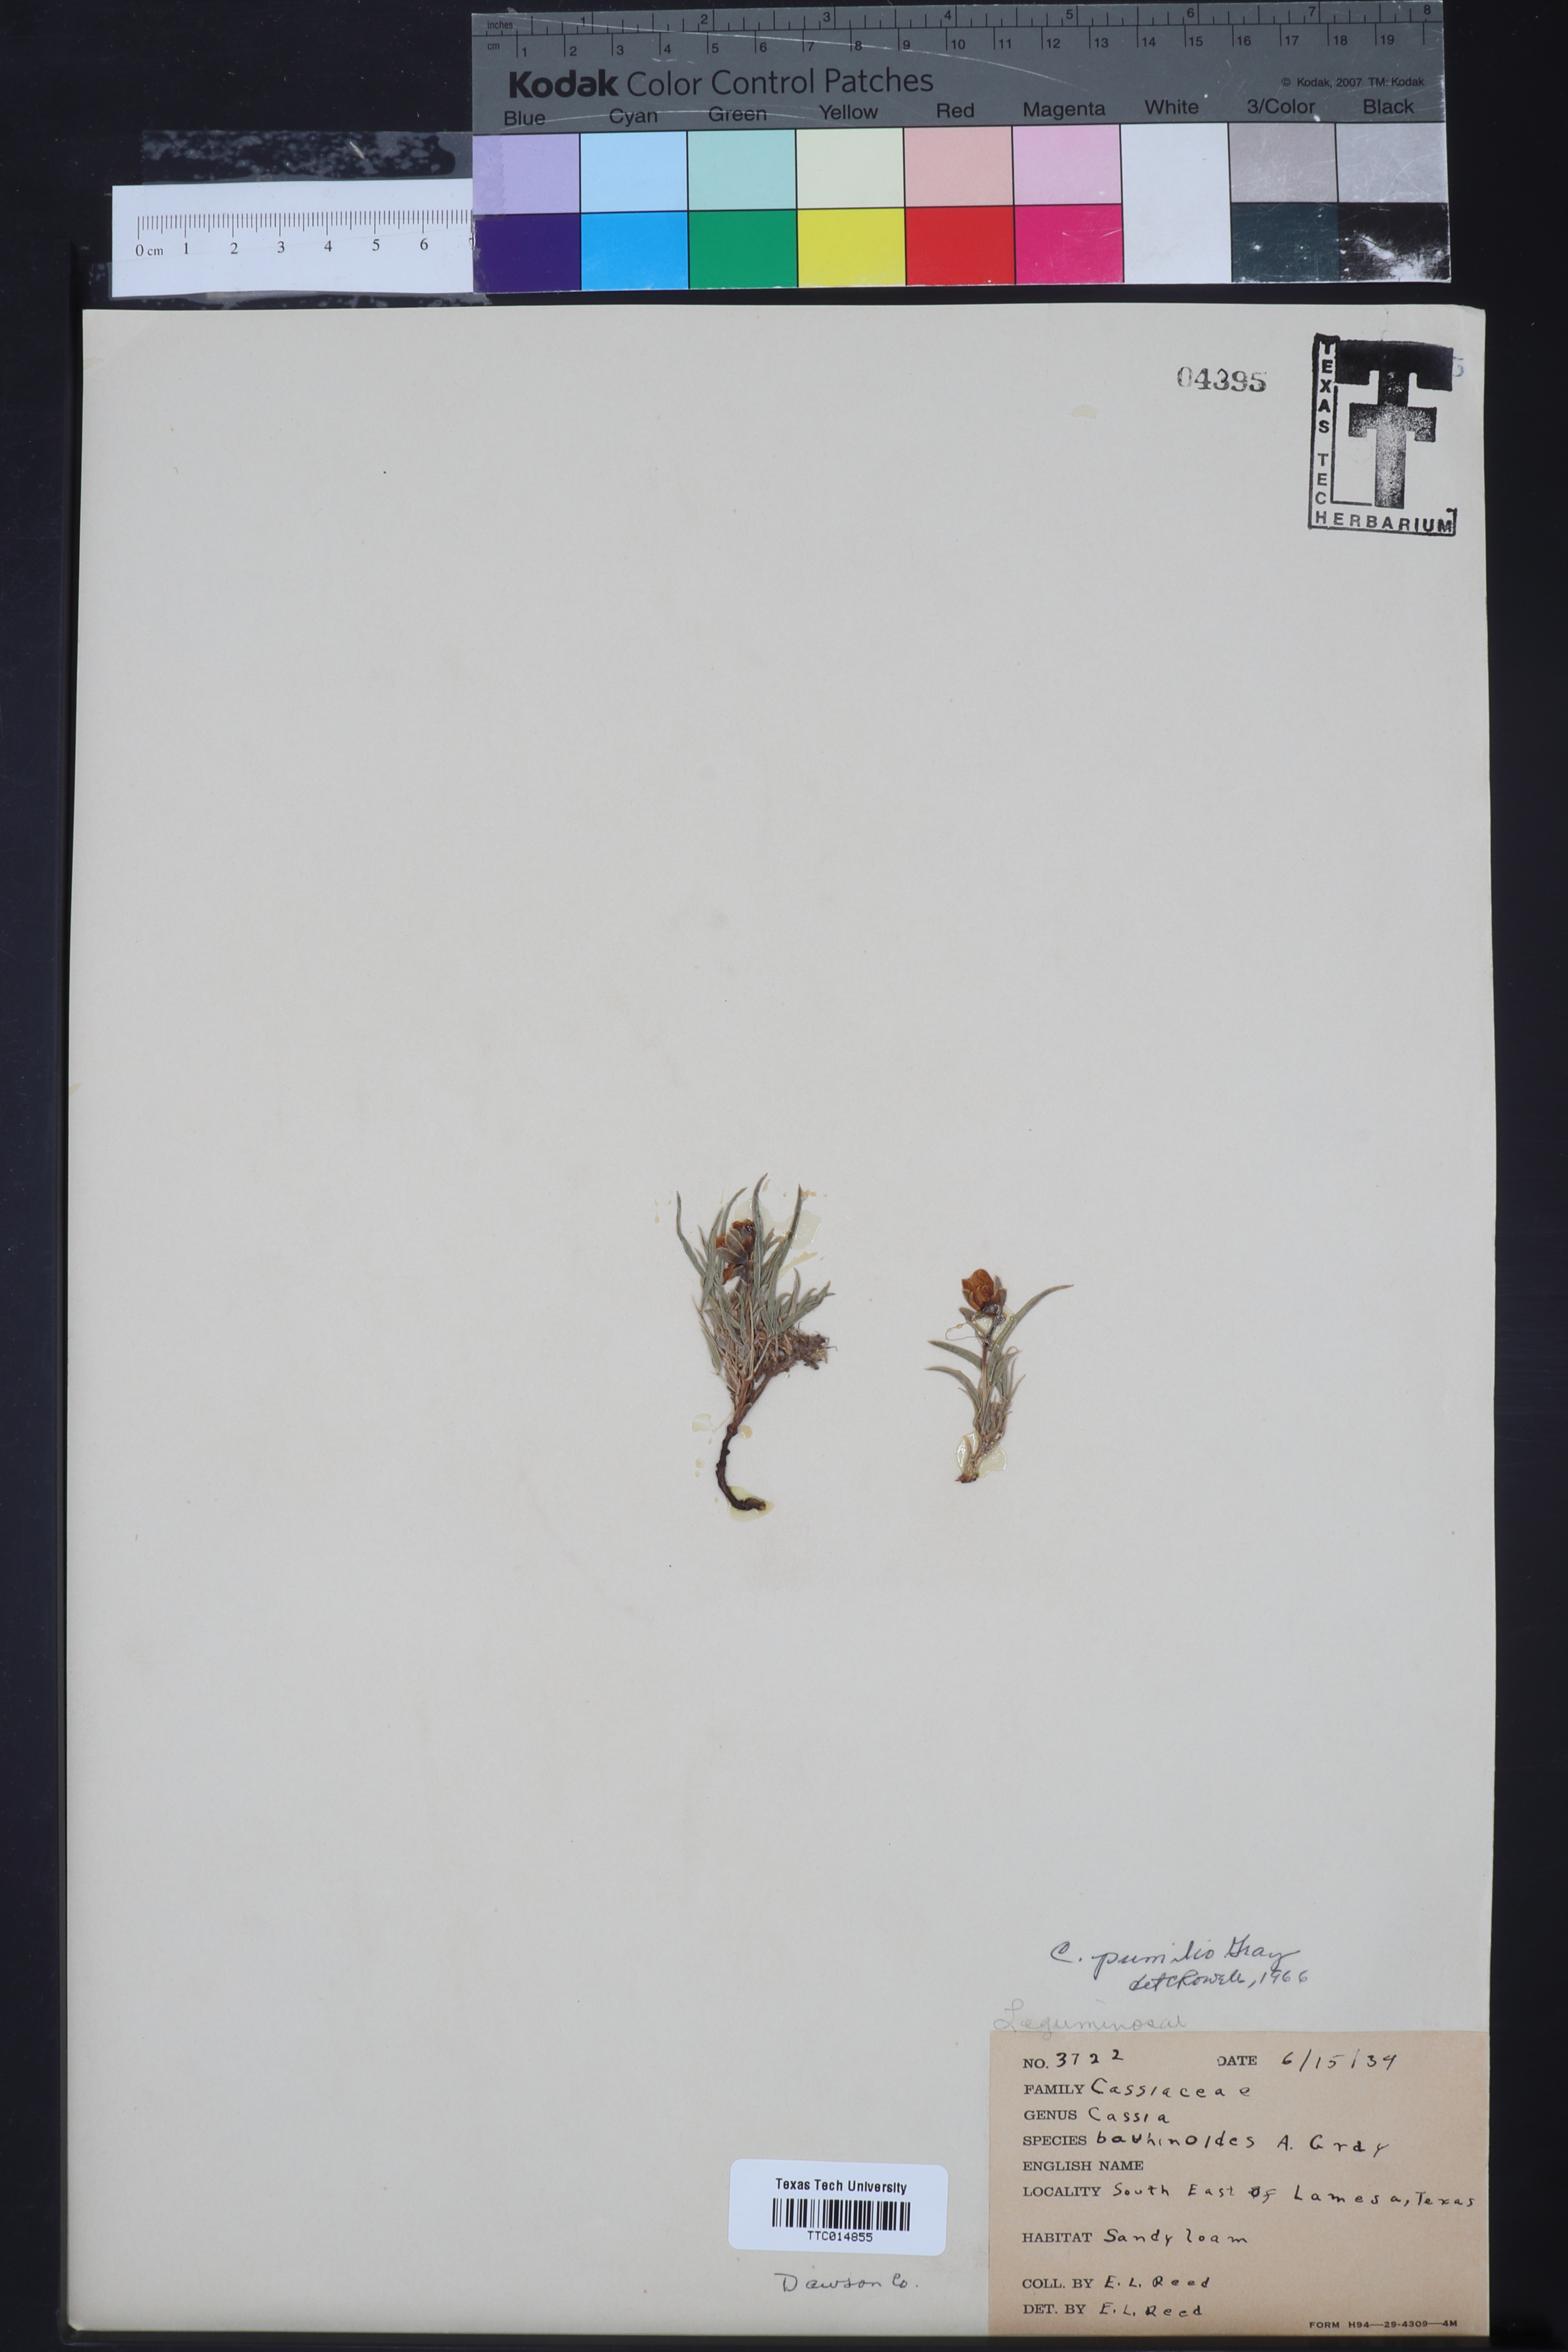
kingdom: Plantae
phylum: Tracheophyta
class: Magnoliopsida
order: Fabales
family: Fabaceae
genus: Senna
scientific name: Senna pumilio
